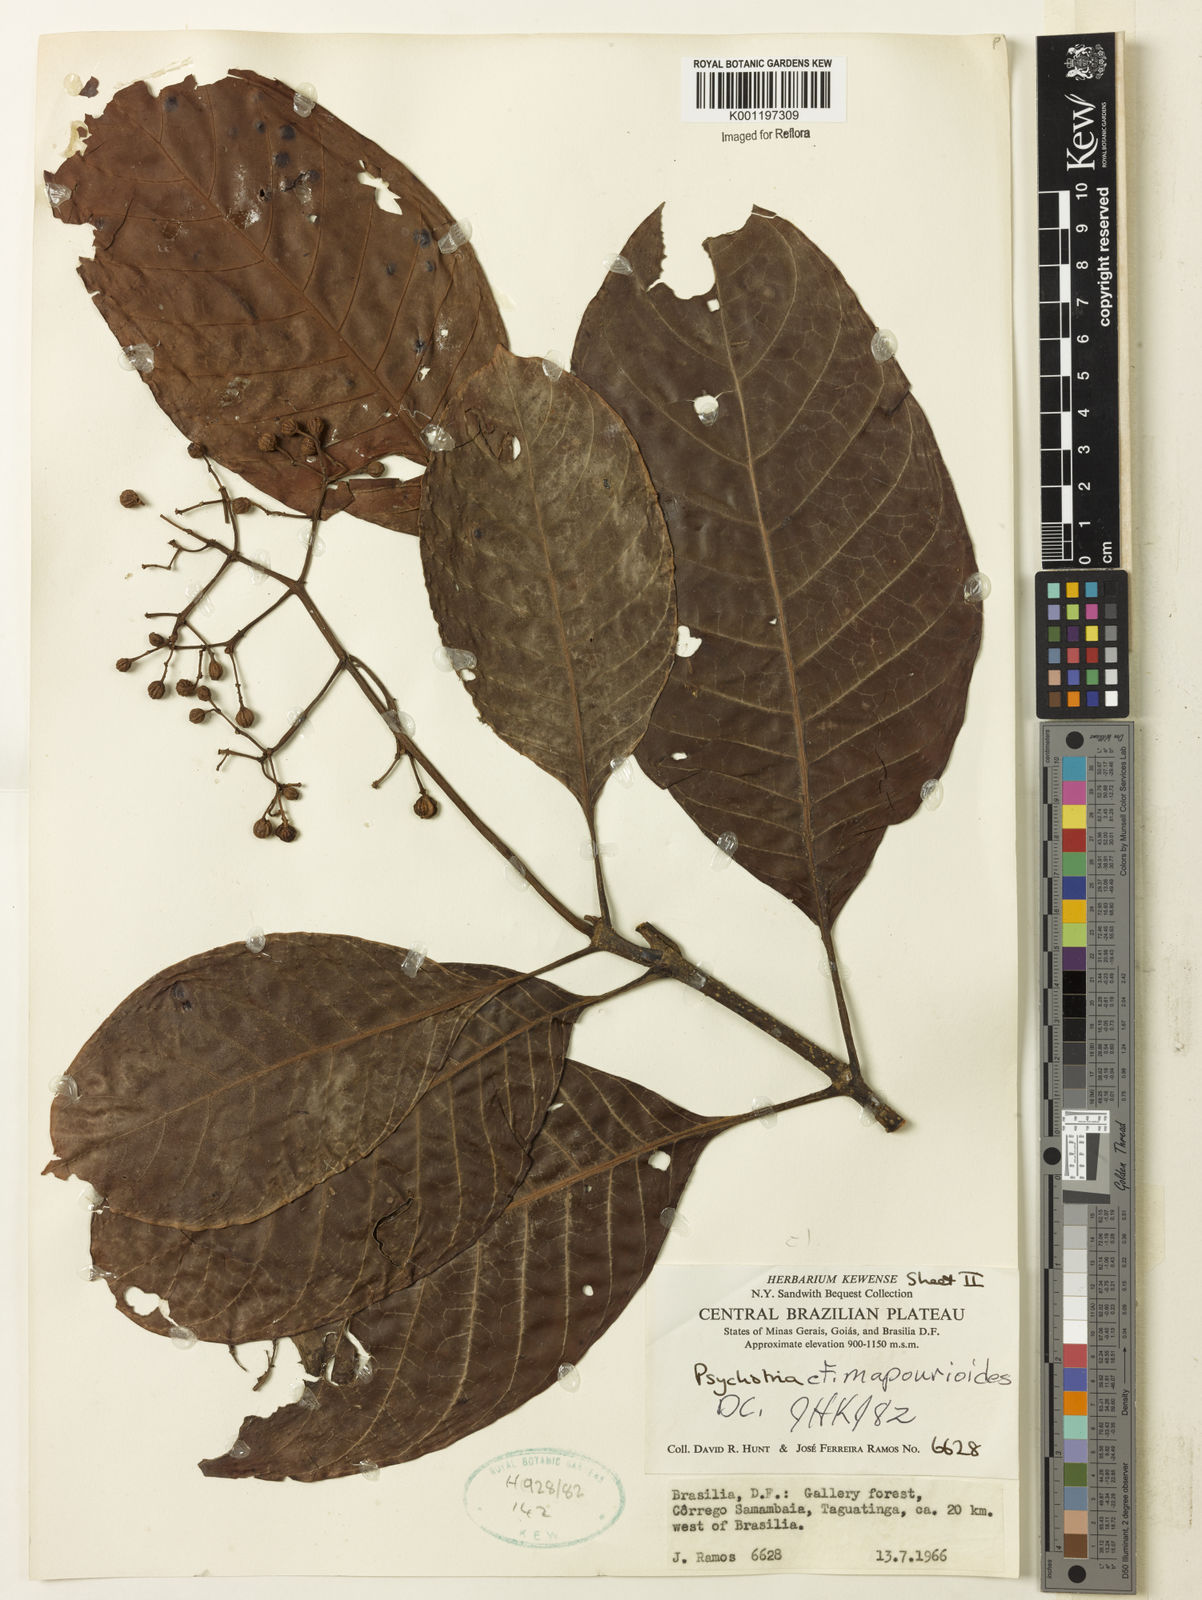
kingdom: Plantae
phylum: Tracheophyta
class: Magnoliopsida
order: Gentianales
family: Rubiaceae
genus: Psychotria
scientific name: Psychotria pedunculosa
